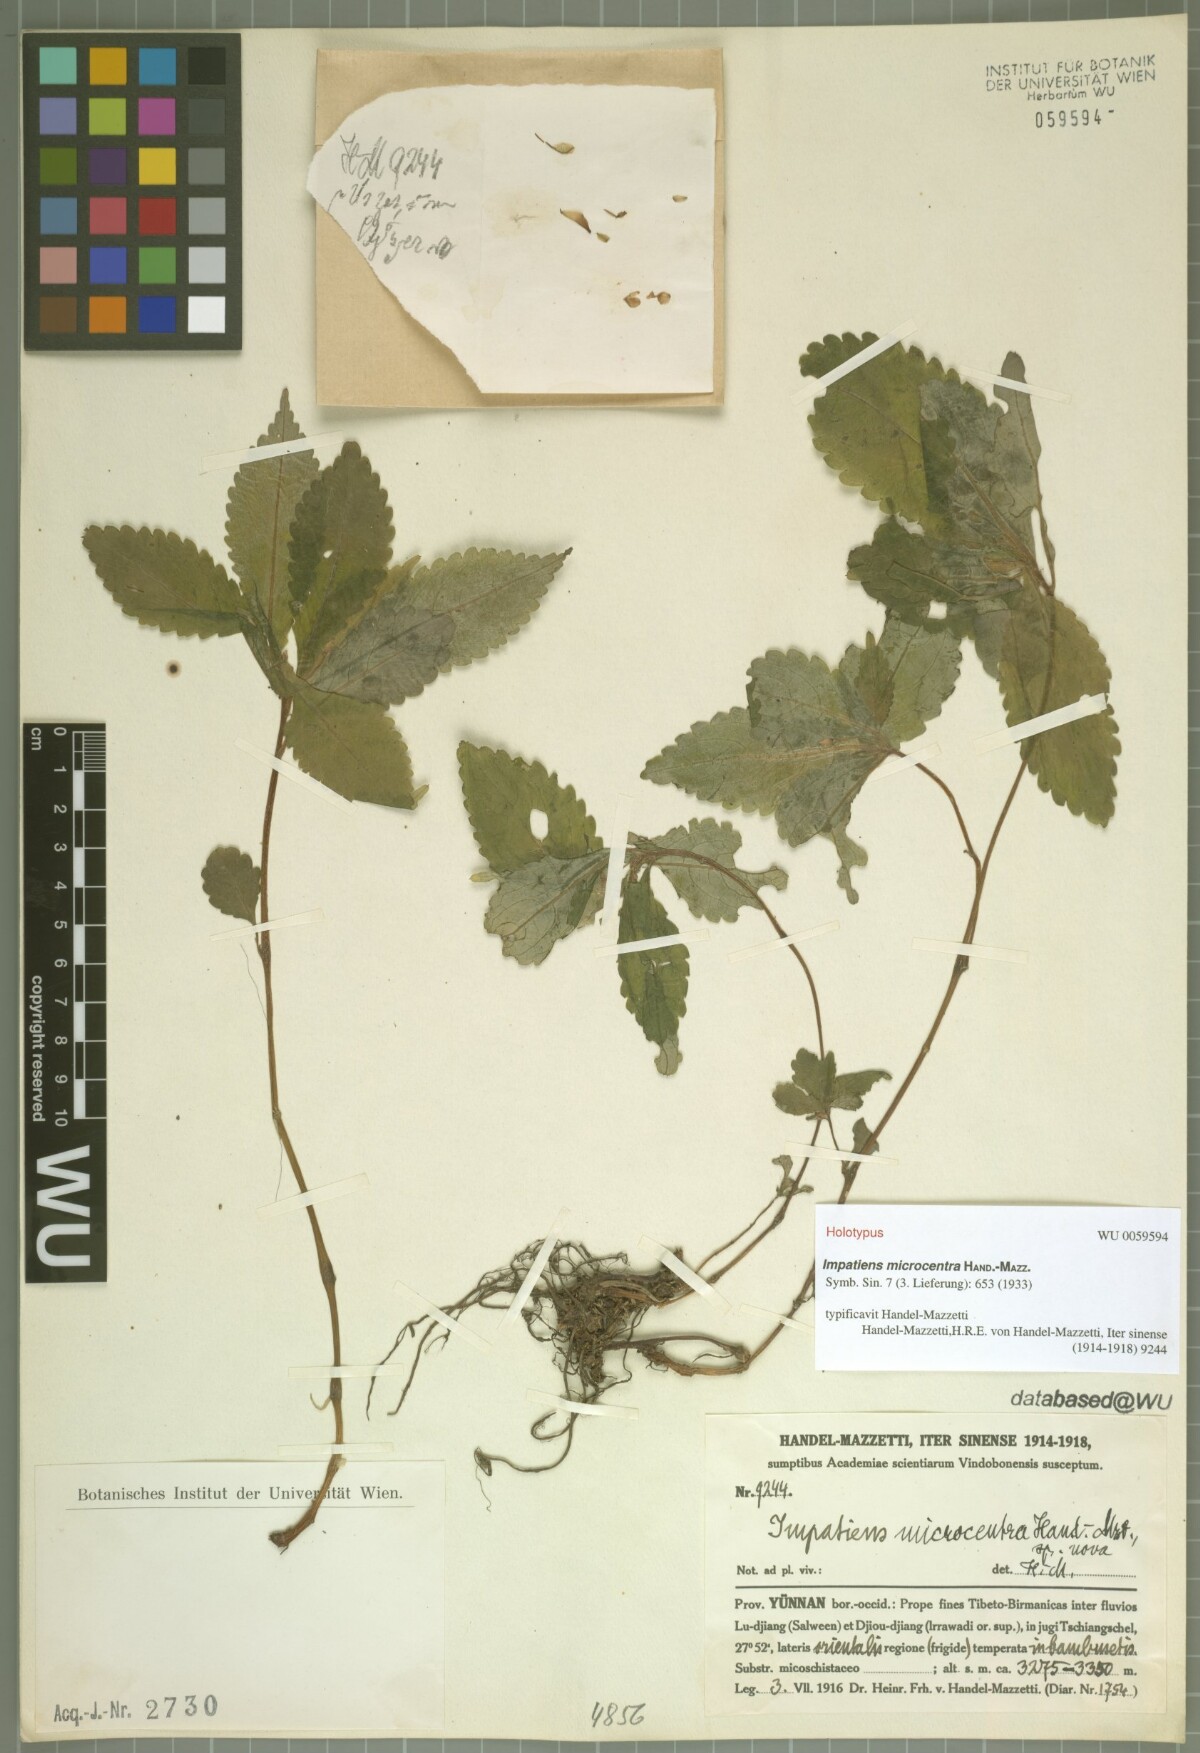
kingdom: Plantae
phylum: Tracheophyta
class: Magnoliopsida
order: Ericales
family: Balsaminaceae
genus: Impatiens
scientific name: Impatiens microcentra
